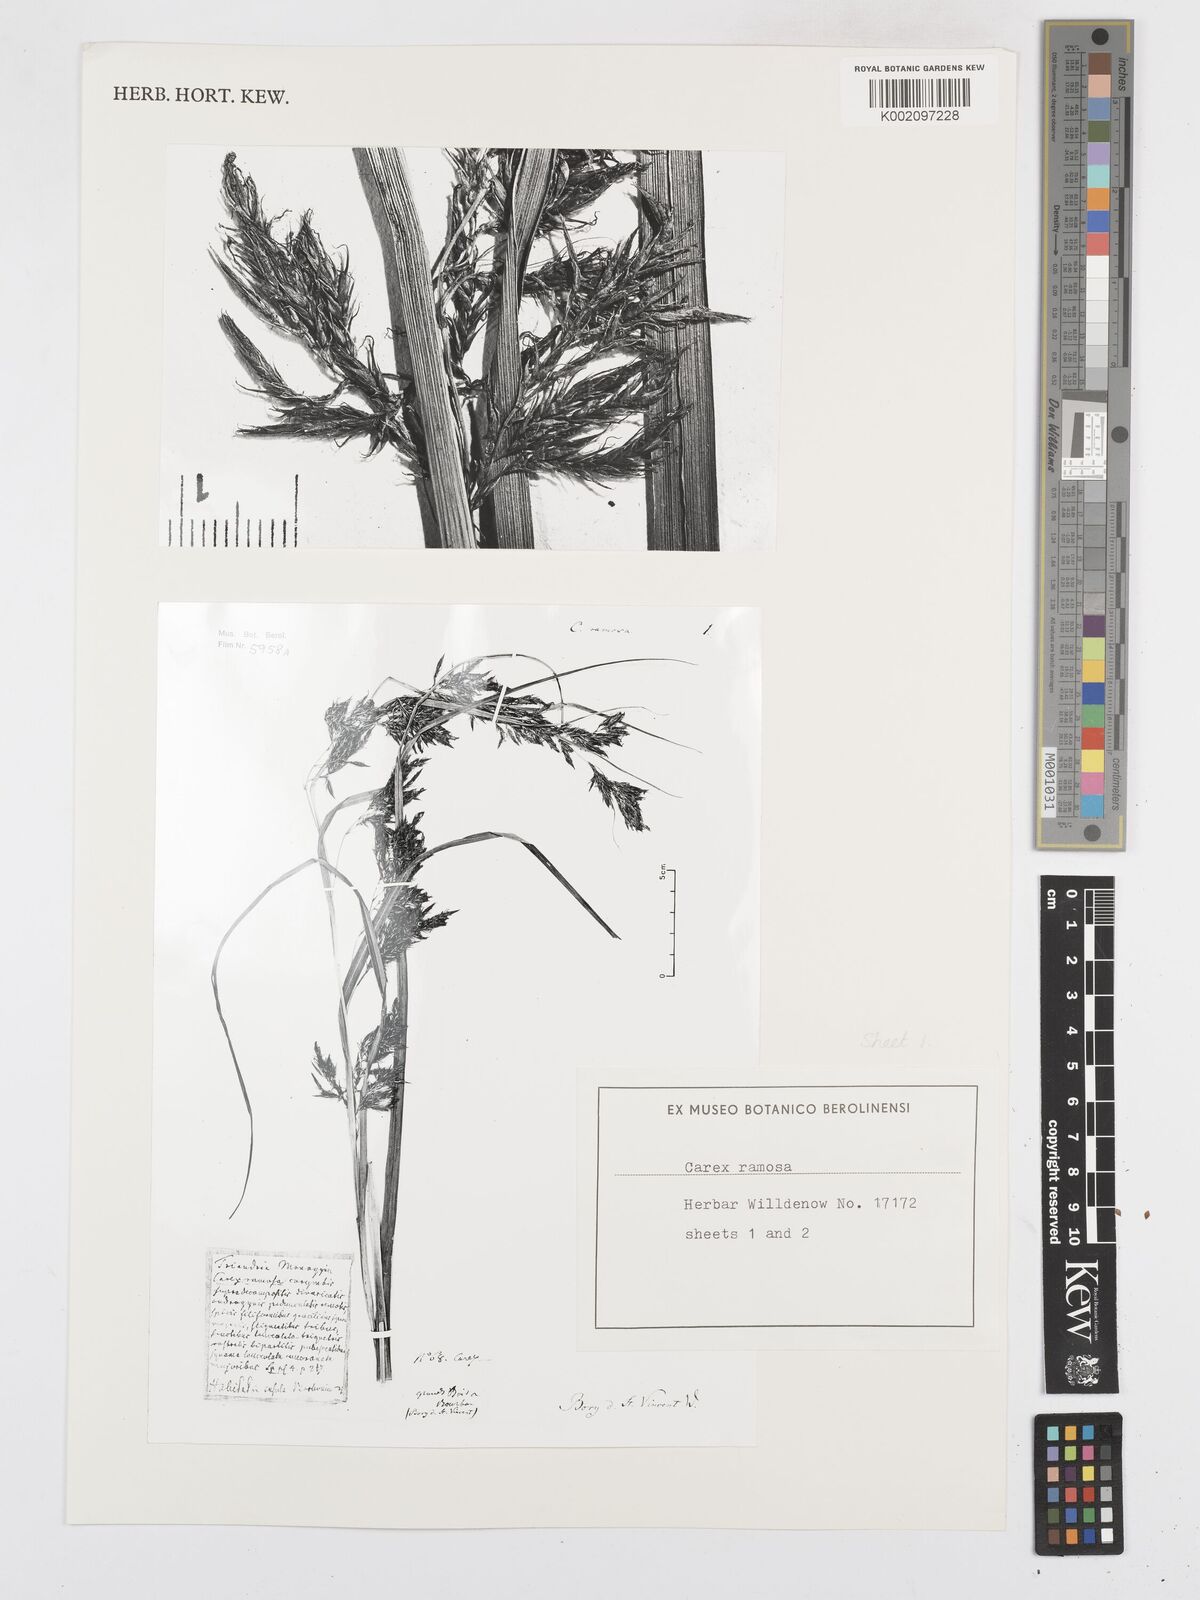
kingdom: Plantae
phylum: Tracheophyta
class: Liliopsida
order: Poales
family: Cyperaceae
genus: Carex
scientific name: Carex lancea
